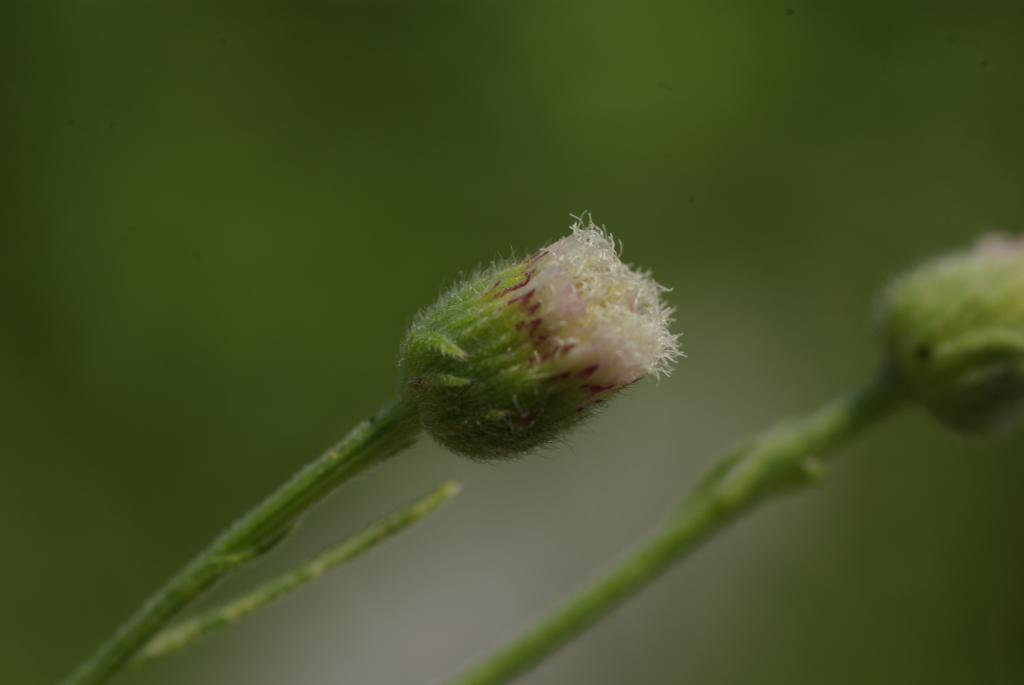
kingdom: Plantae
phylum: Tracheophyta
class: Magnoliopsida
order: Asterales
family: Asteraceae
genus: Erigeron
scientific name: Erigeron bonariensis
